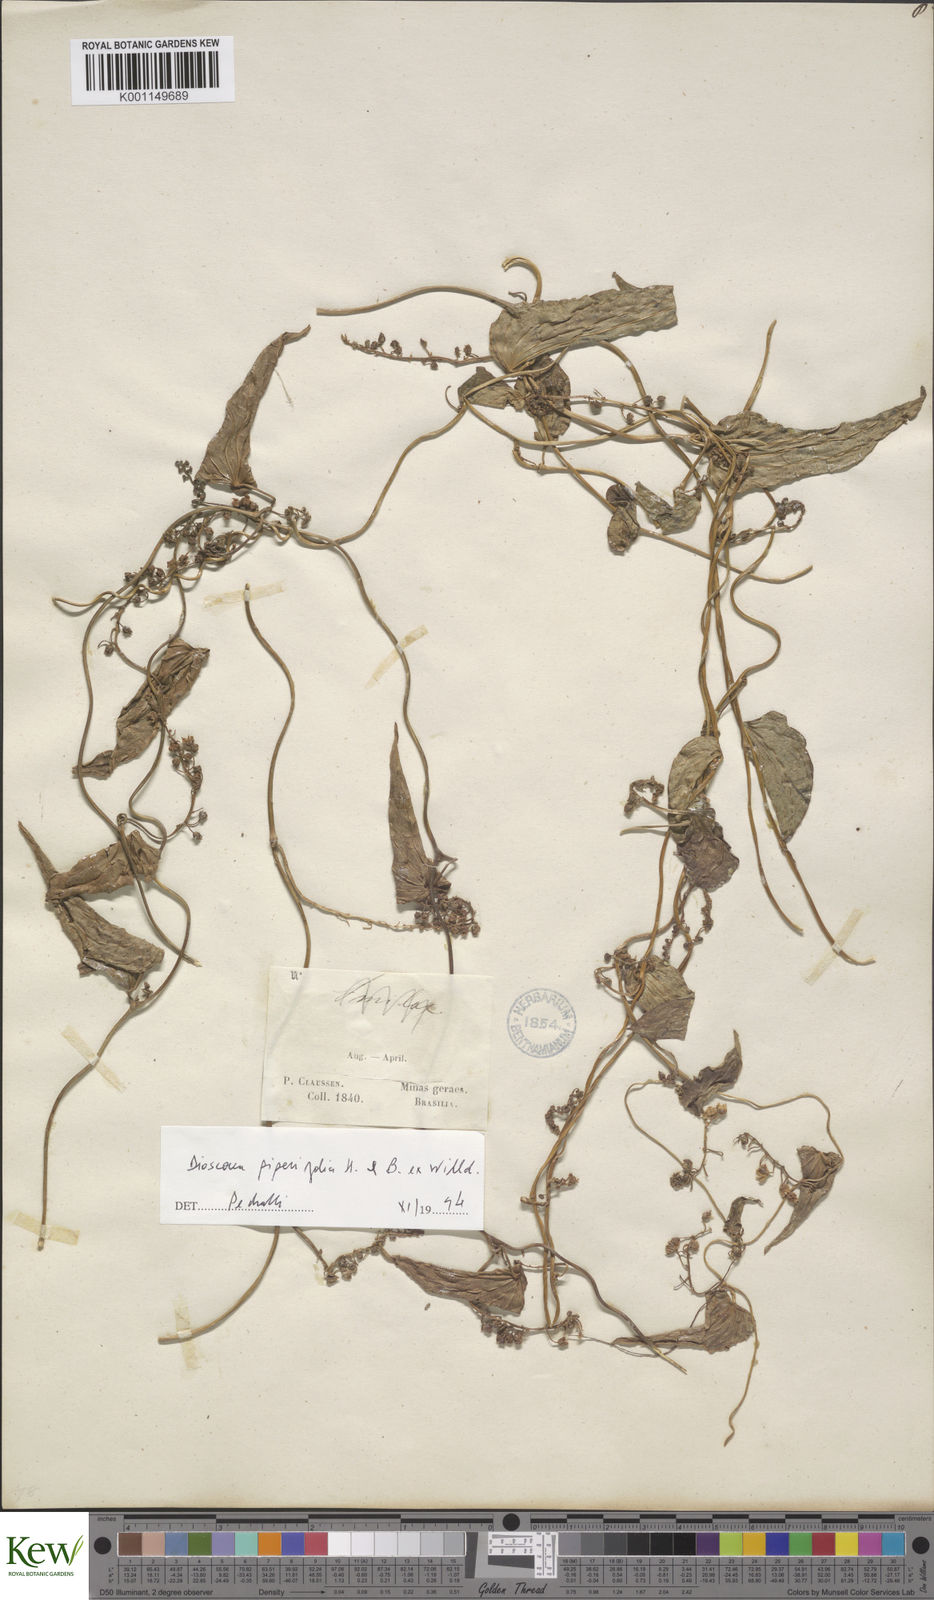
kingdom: Plantae
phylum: Tracheophyta
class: Liliopsida
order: Dioscoreales
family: Dioscoreaceae
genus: Dioscorea
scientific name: Dioscorea grandiflora
